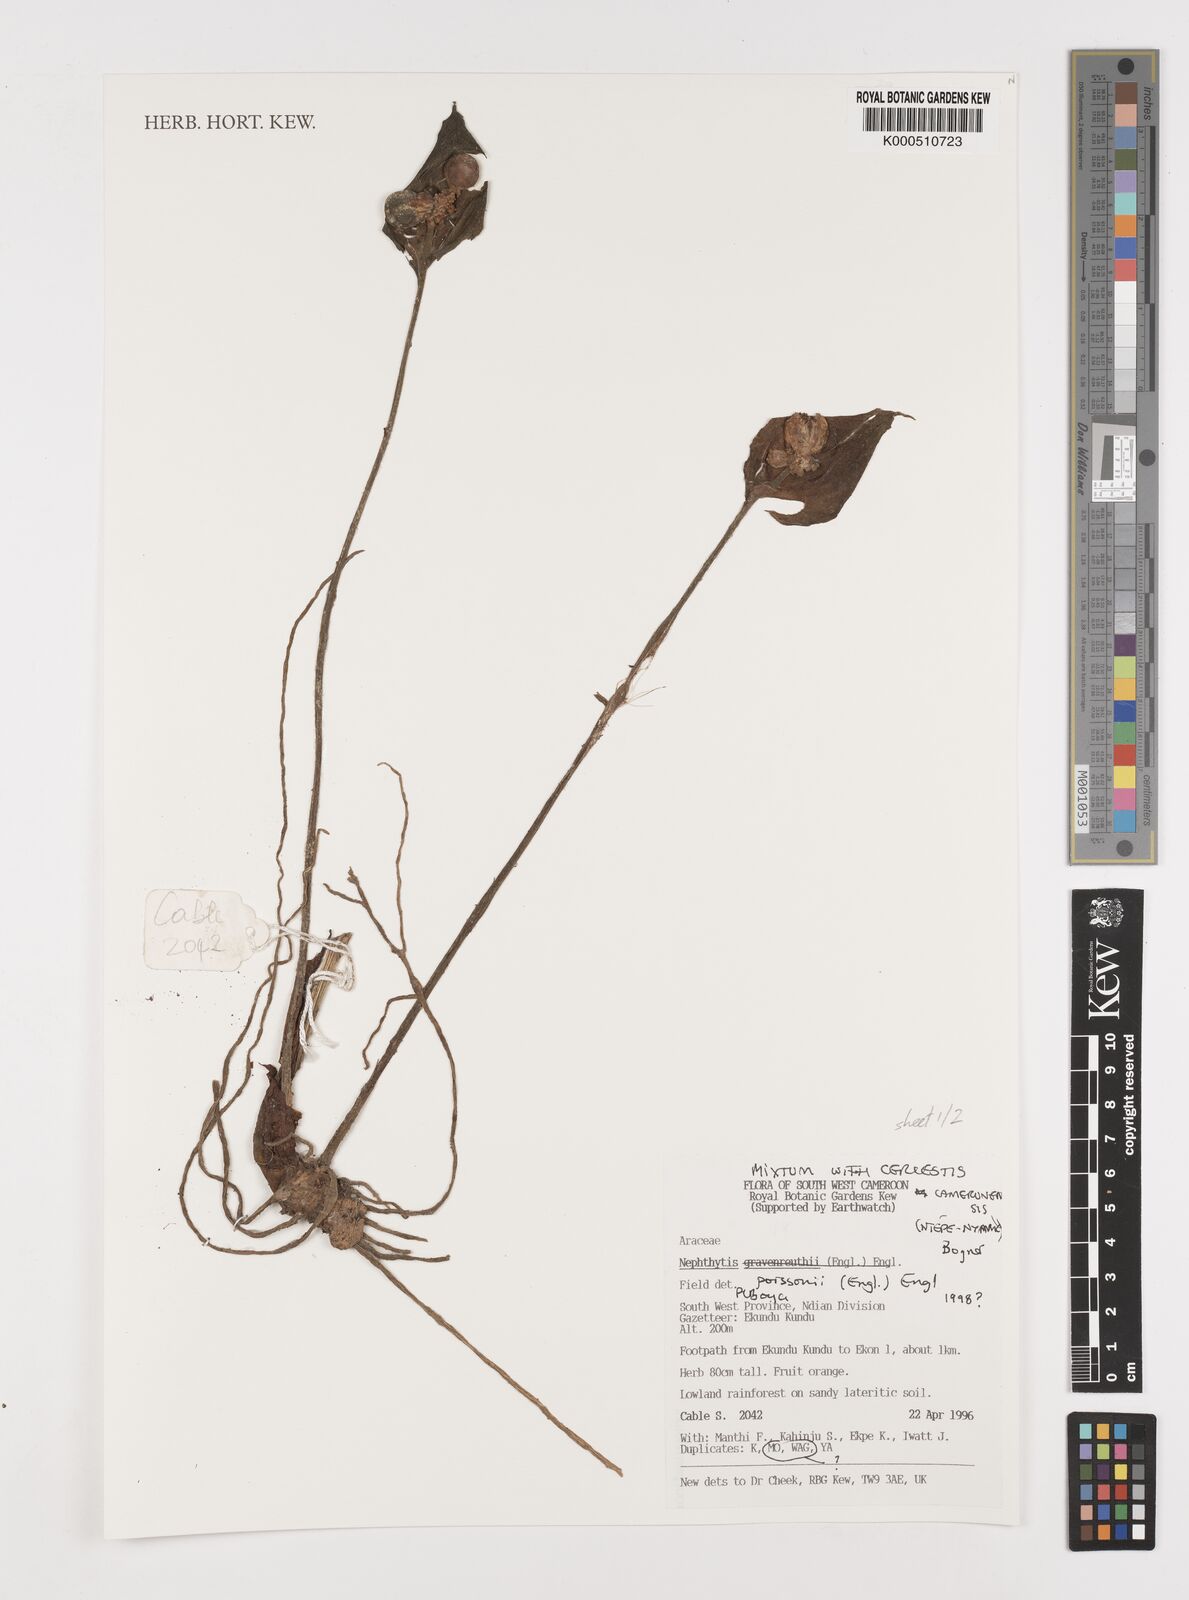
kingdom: Plantae
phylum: Tracheophyta
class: Liliopsida
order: Alismatales
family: Araceae
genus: Nephthytis
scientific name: Nephthytis poissonii
